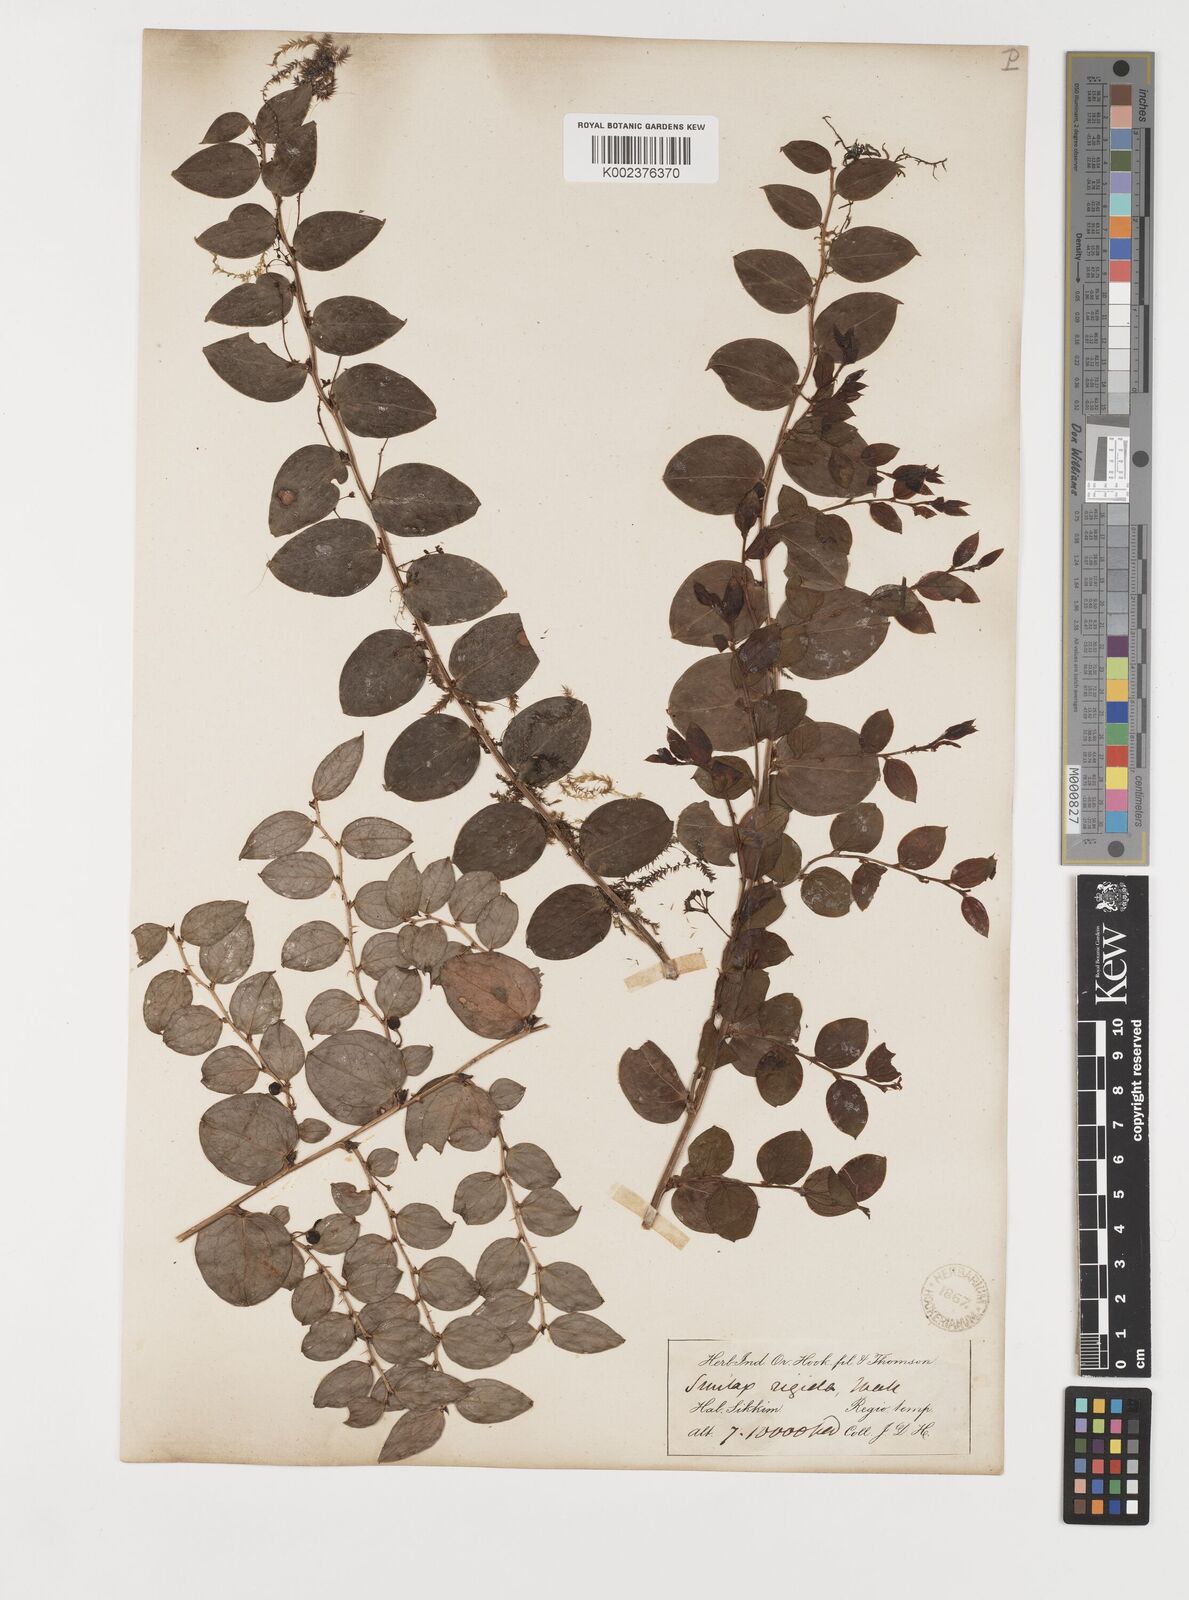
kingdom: Plantae
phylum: Tracheophyta
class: Liliopsida
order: Liliales
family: Smilacaceae
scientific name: Smilacaceae
